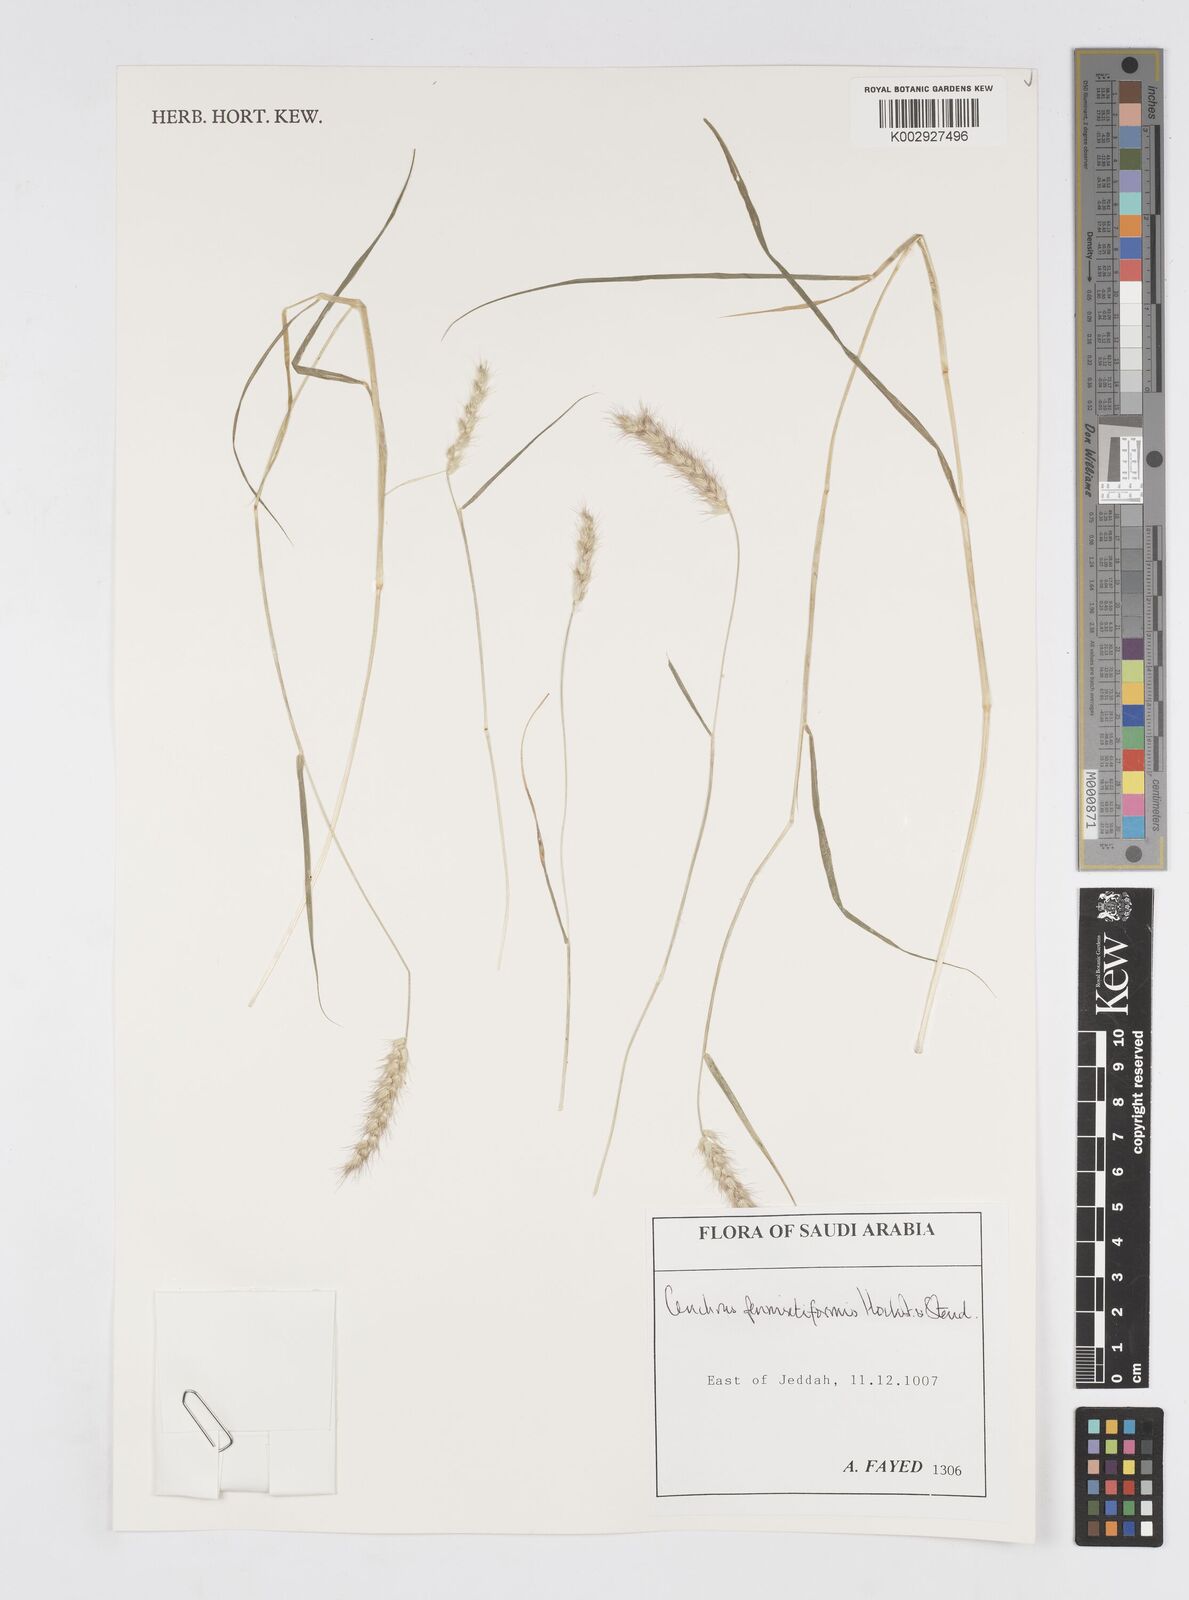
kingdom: Plantae
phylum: Tracheophyta
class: Liliopsida
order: Poales
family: Poaceae
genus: Cenchrus
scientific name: Cenchrus pennisetiformis
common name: Cloncurry
